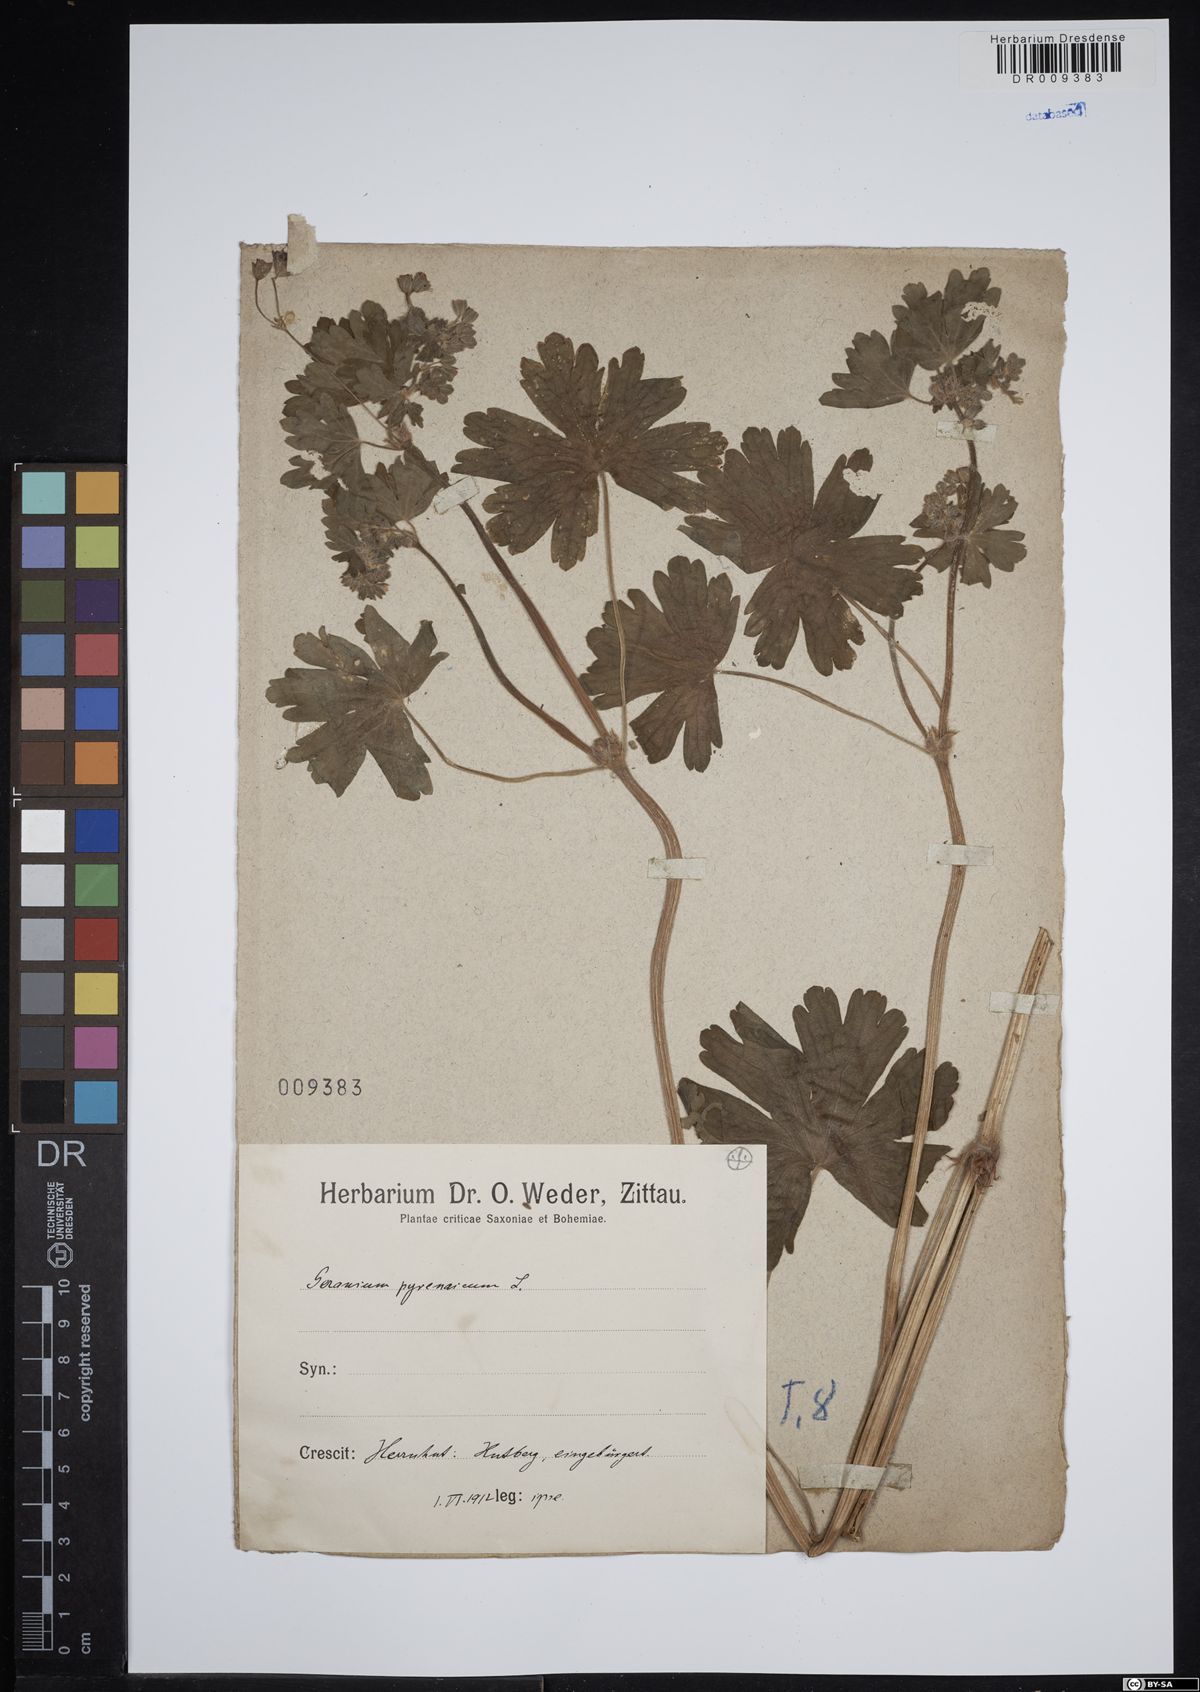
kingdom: Plantae
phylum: Tracheophyta
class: Magnoliopsida
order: Geraniales
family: Geraniaceae
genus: Geranium
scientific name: Geranium pyrenaicum
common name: Hedgerow crane's-bill
